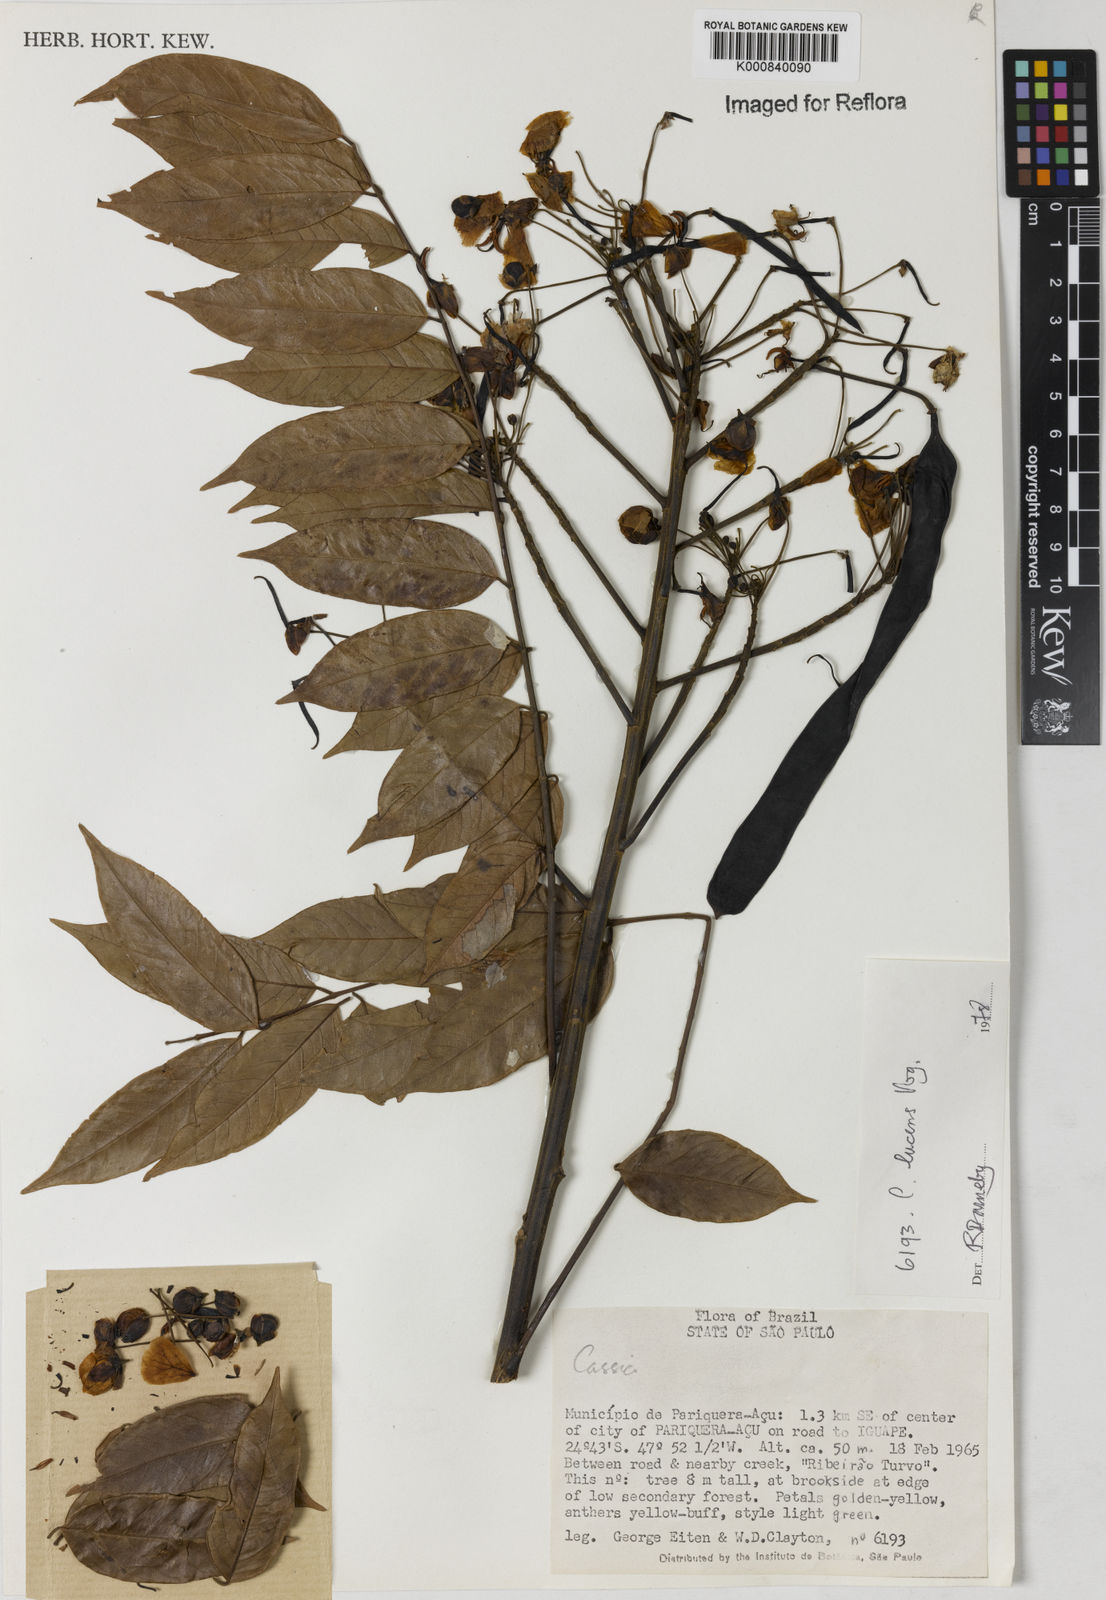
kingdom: Plantae
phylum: Tracheophyta
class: Magnoliopsida
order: Fabales
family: Fabaceae
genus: Senna
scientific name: Senna silvestris
